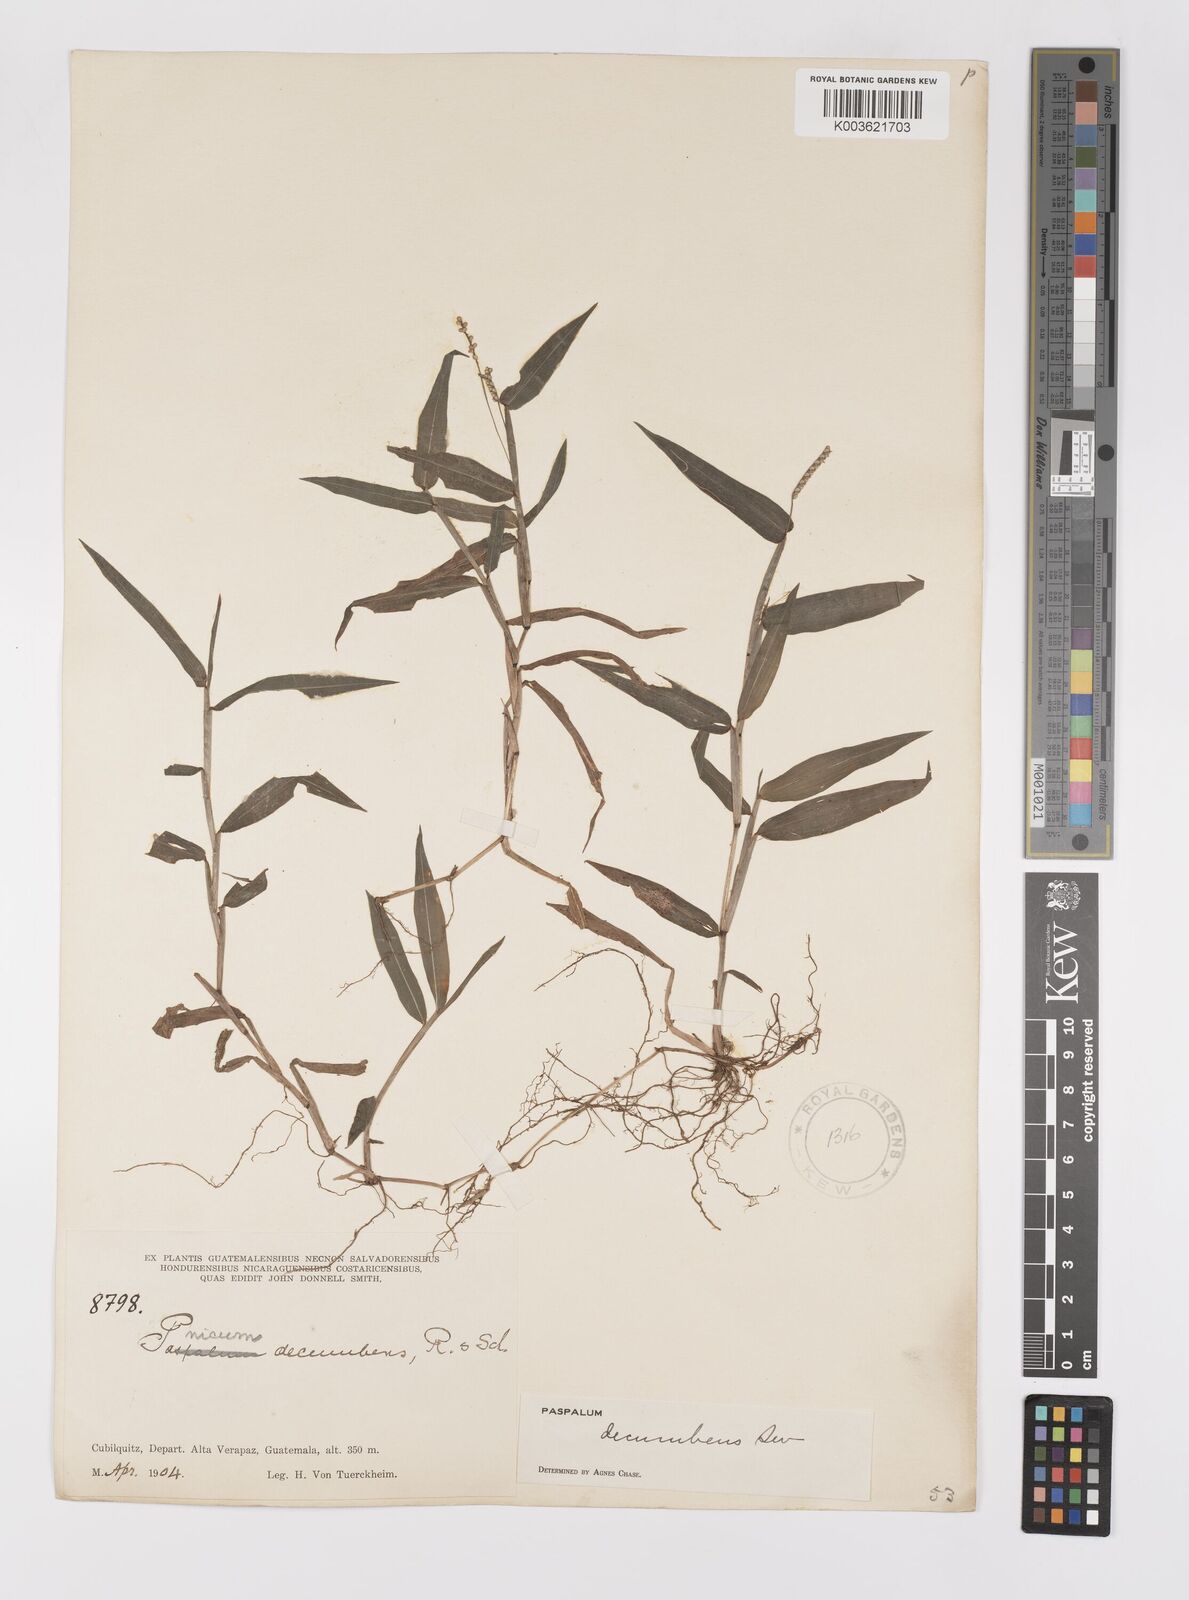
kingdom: Plantae
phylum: Tracheophyta
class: Liliopsida
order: Poales
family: Poaceae
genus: Paspalum
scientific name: Paspalum
